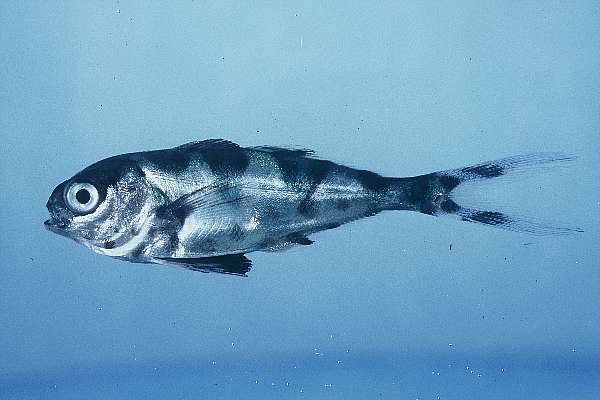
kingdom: Animalia
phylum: Chordata
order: Perciformes
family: Nomeidae
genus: Nomeus
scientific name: Nomeus gronovii
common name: Man-of-war fish
